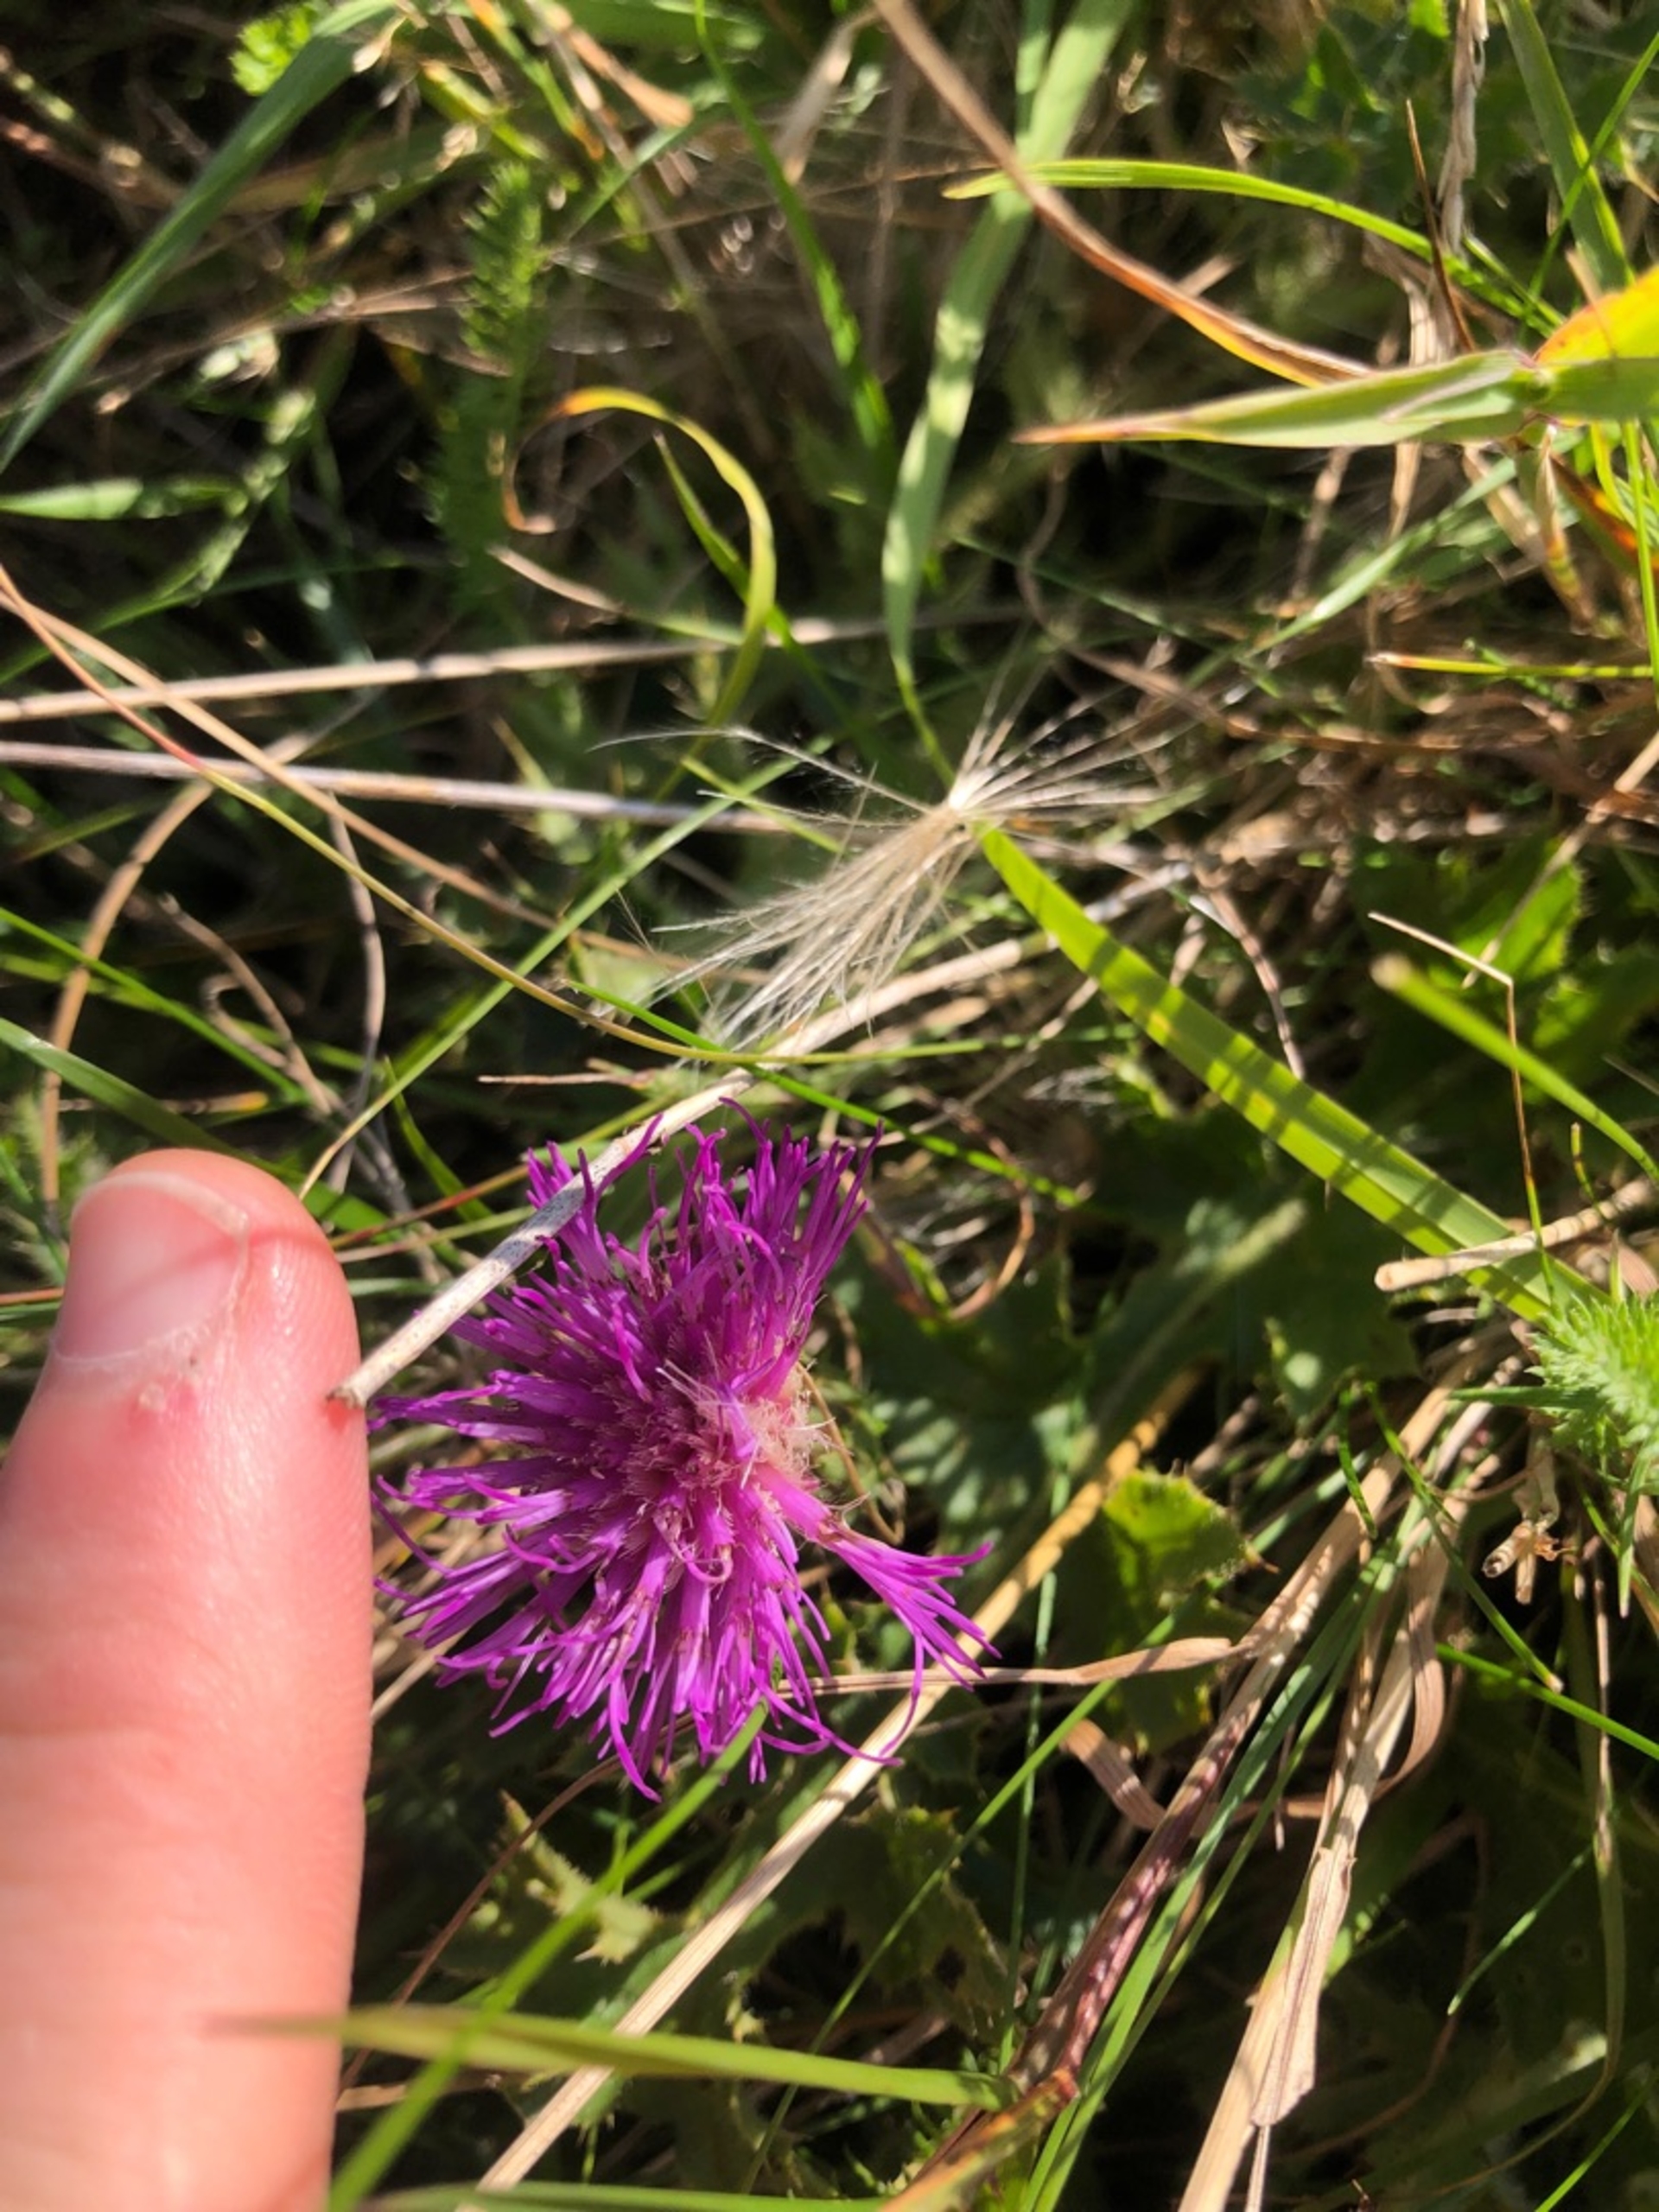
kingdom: Plantae
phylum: Tracheophyta
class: Magnoliopsida
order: Asterales
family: Asteraceae
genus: Cirsium
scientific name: Cirsium acaule
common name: Lav tidsel
